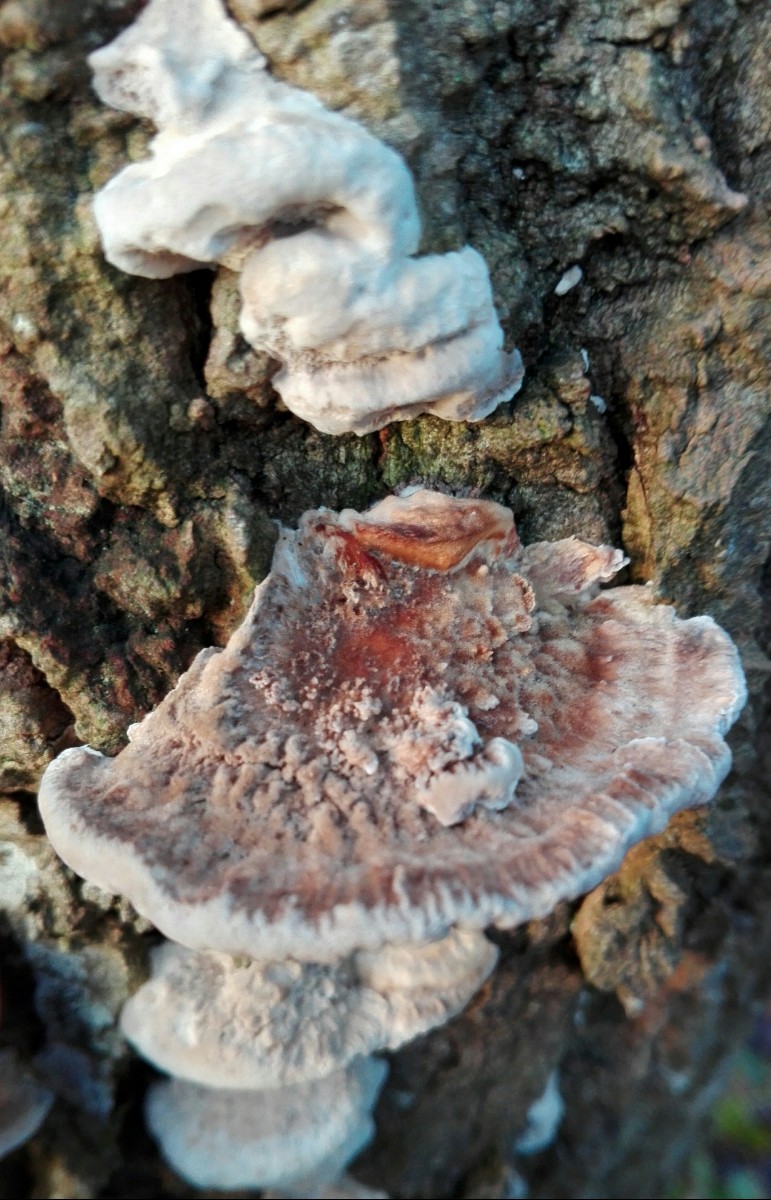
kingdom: Fungi
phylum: Basidiomycota
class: Agaricomycetes
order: Hymenochaetales
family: Hymenochaetaceae
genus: Inocutis
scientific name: Inocutis rheades
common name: ræve-spejlporesvamp
